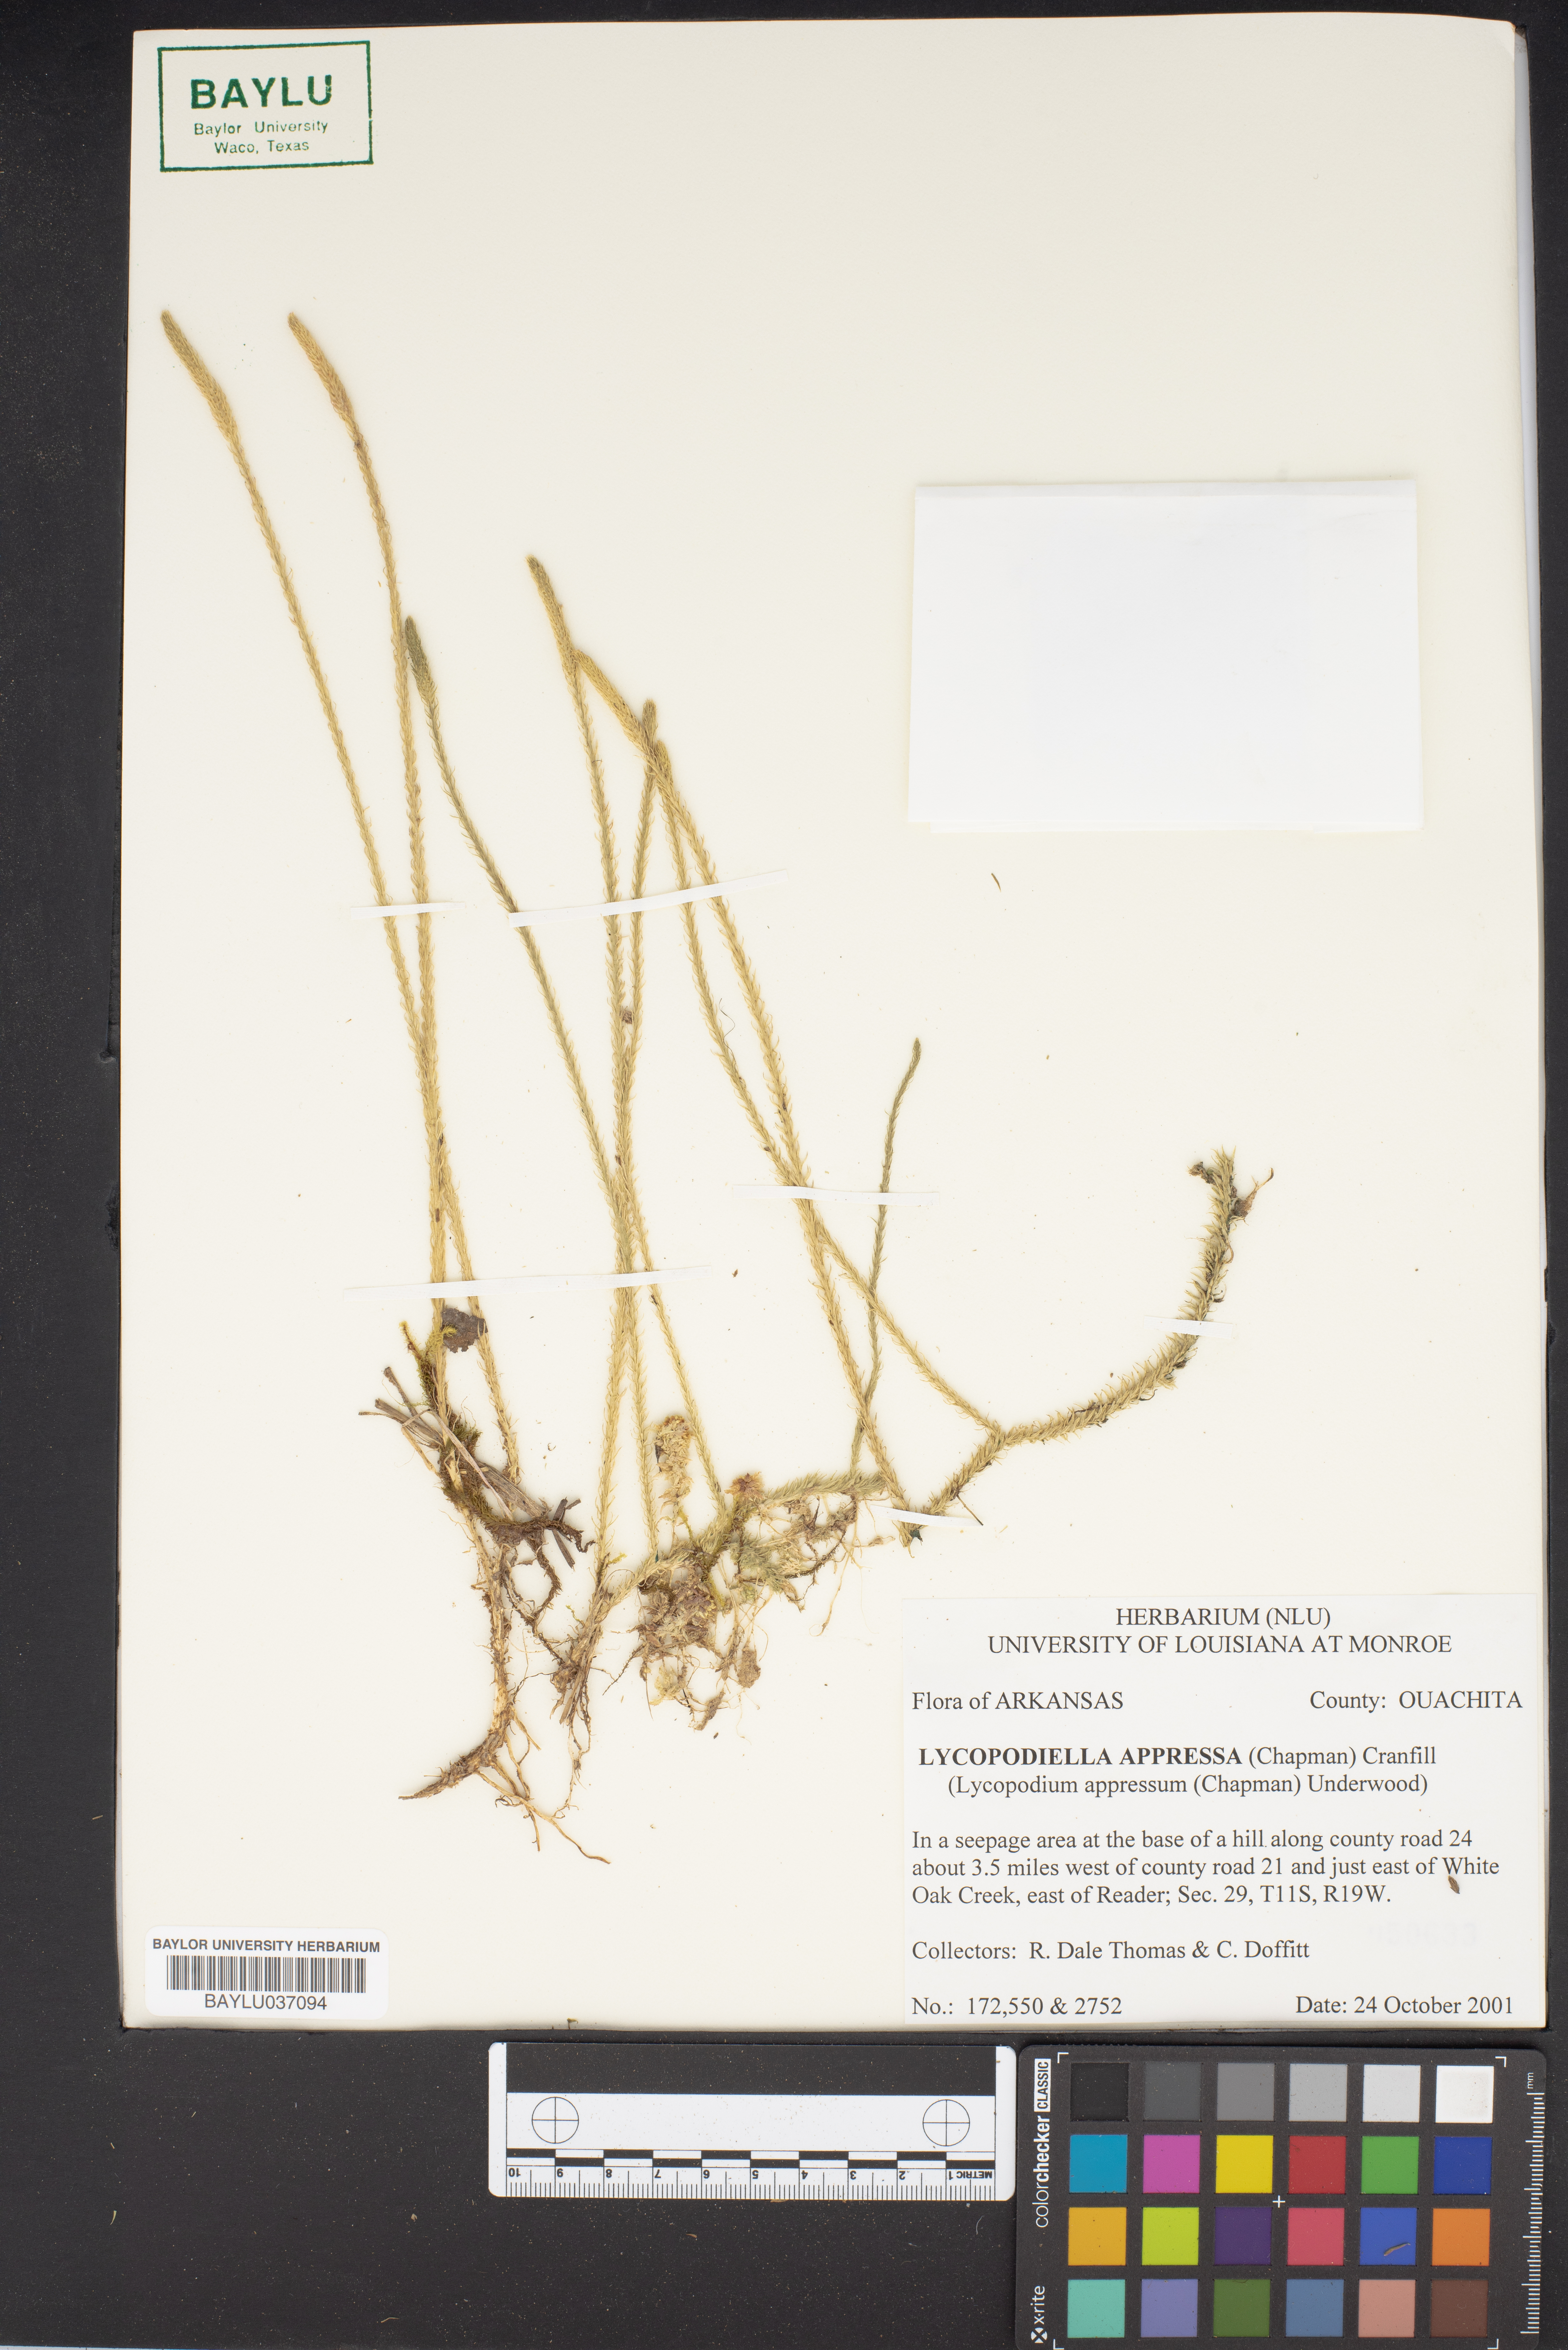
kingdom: Plantae
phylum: Tracheophyta
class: Lycopodiopsida
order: Lycopodiales
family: Lycopodiaceae
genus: Lycopodiella
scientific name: Lycopodiella appressa
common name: Appressed bog clubmoss
